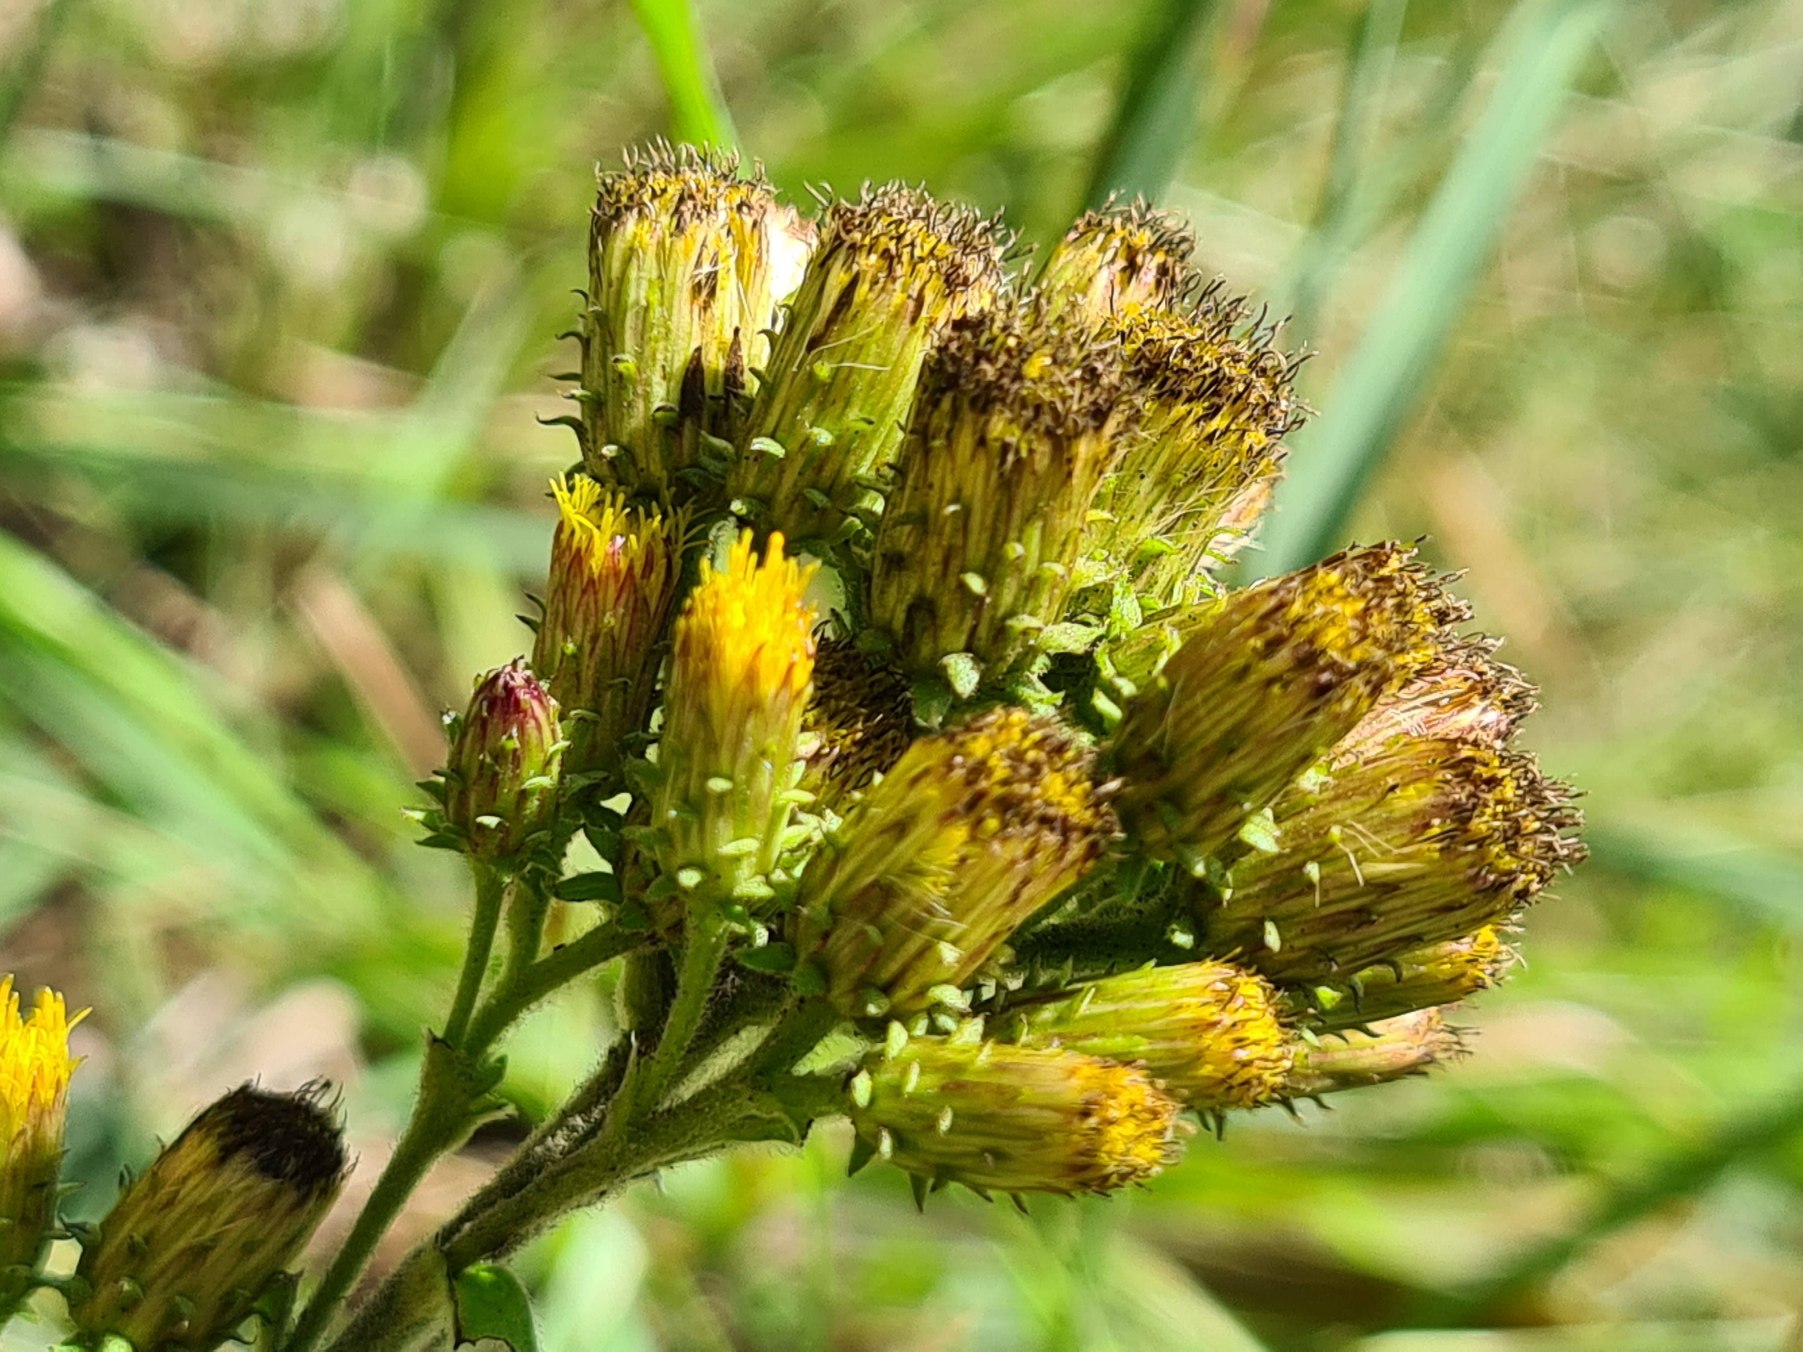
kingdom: Plantae
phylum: Tracheophyta
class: Magnoliopsida
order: Asterales
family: Asteraceae
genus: Pentanema
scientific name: Pentanema squarrosum
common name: Trekløft-alant
